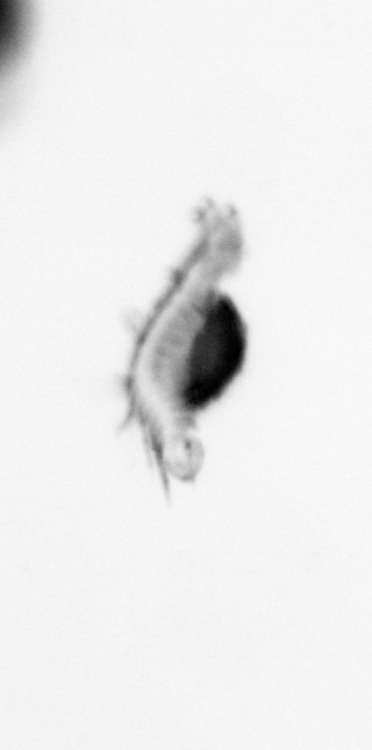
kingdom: Animalia
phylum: Annelida
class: Polychaeta
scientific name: Polychaeta
